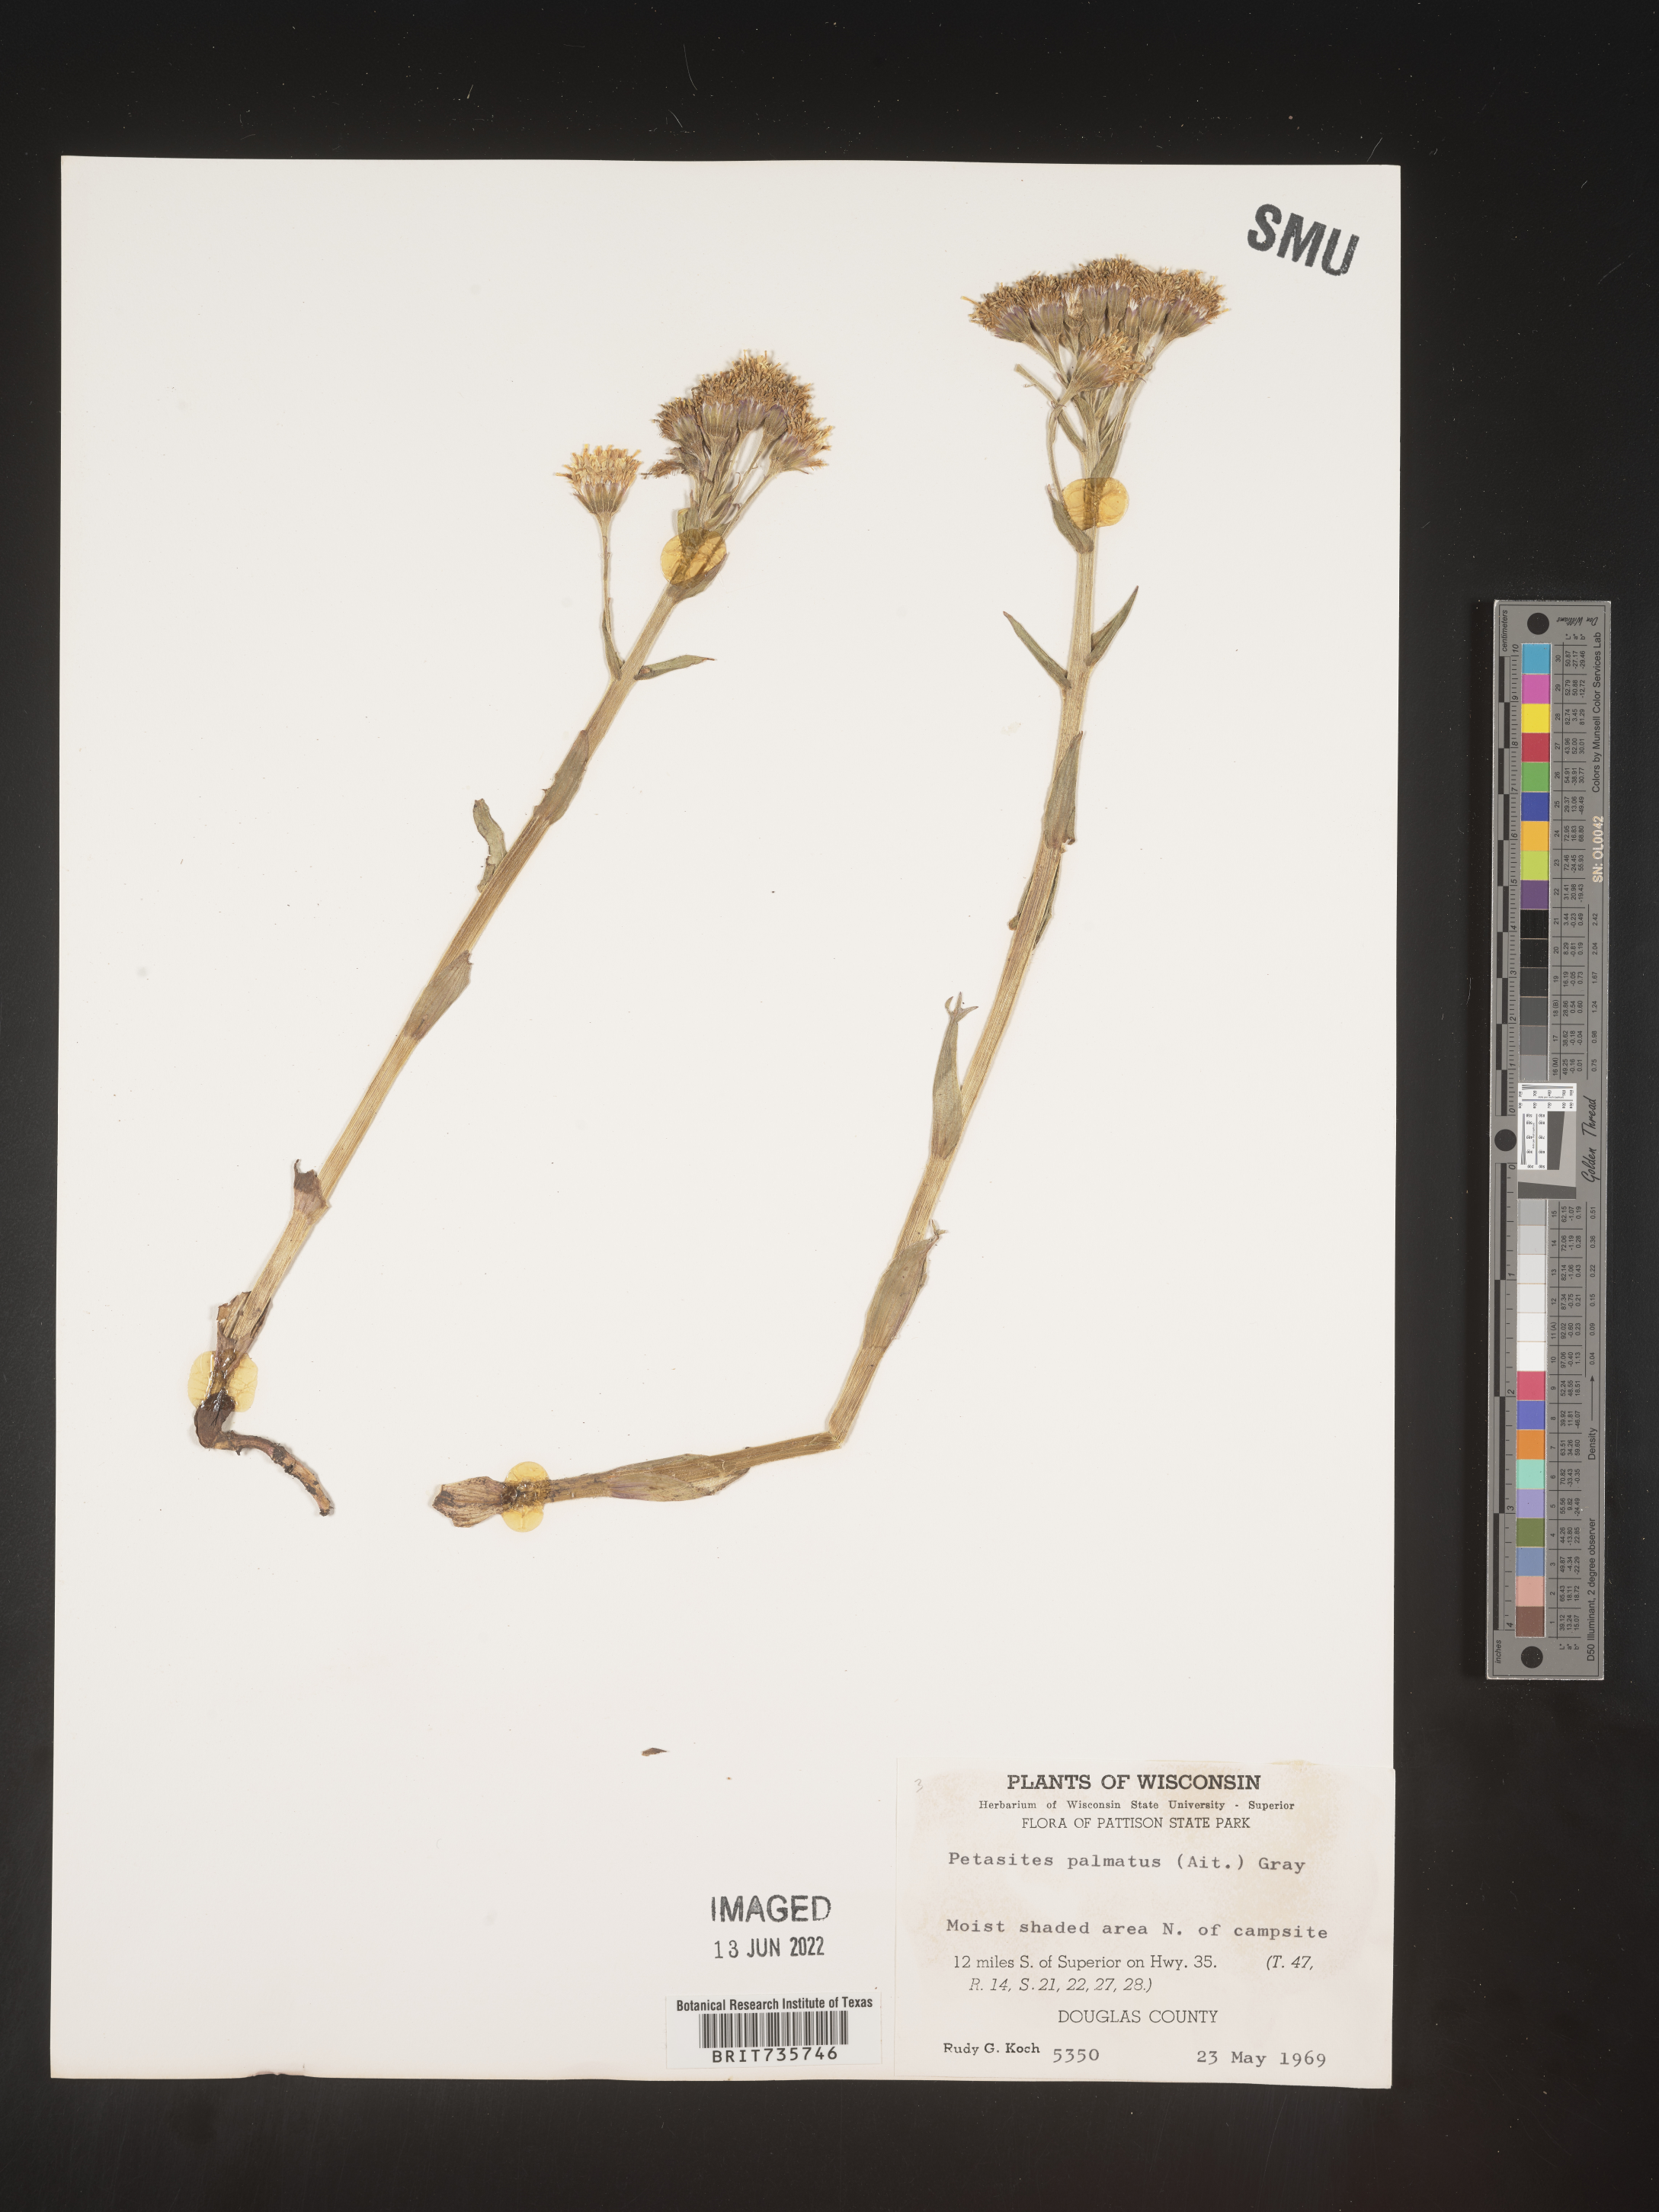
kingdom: Plantae
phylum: Tracheophyta
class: Magnoliopsida
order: Asterales
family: Asteraceae
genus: Petasites
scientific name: Petasites frigidus
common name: Arctic butterbur
